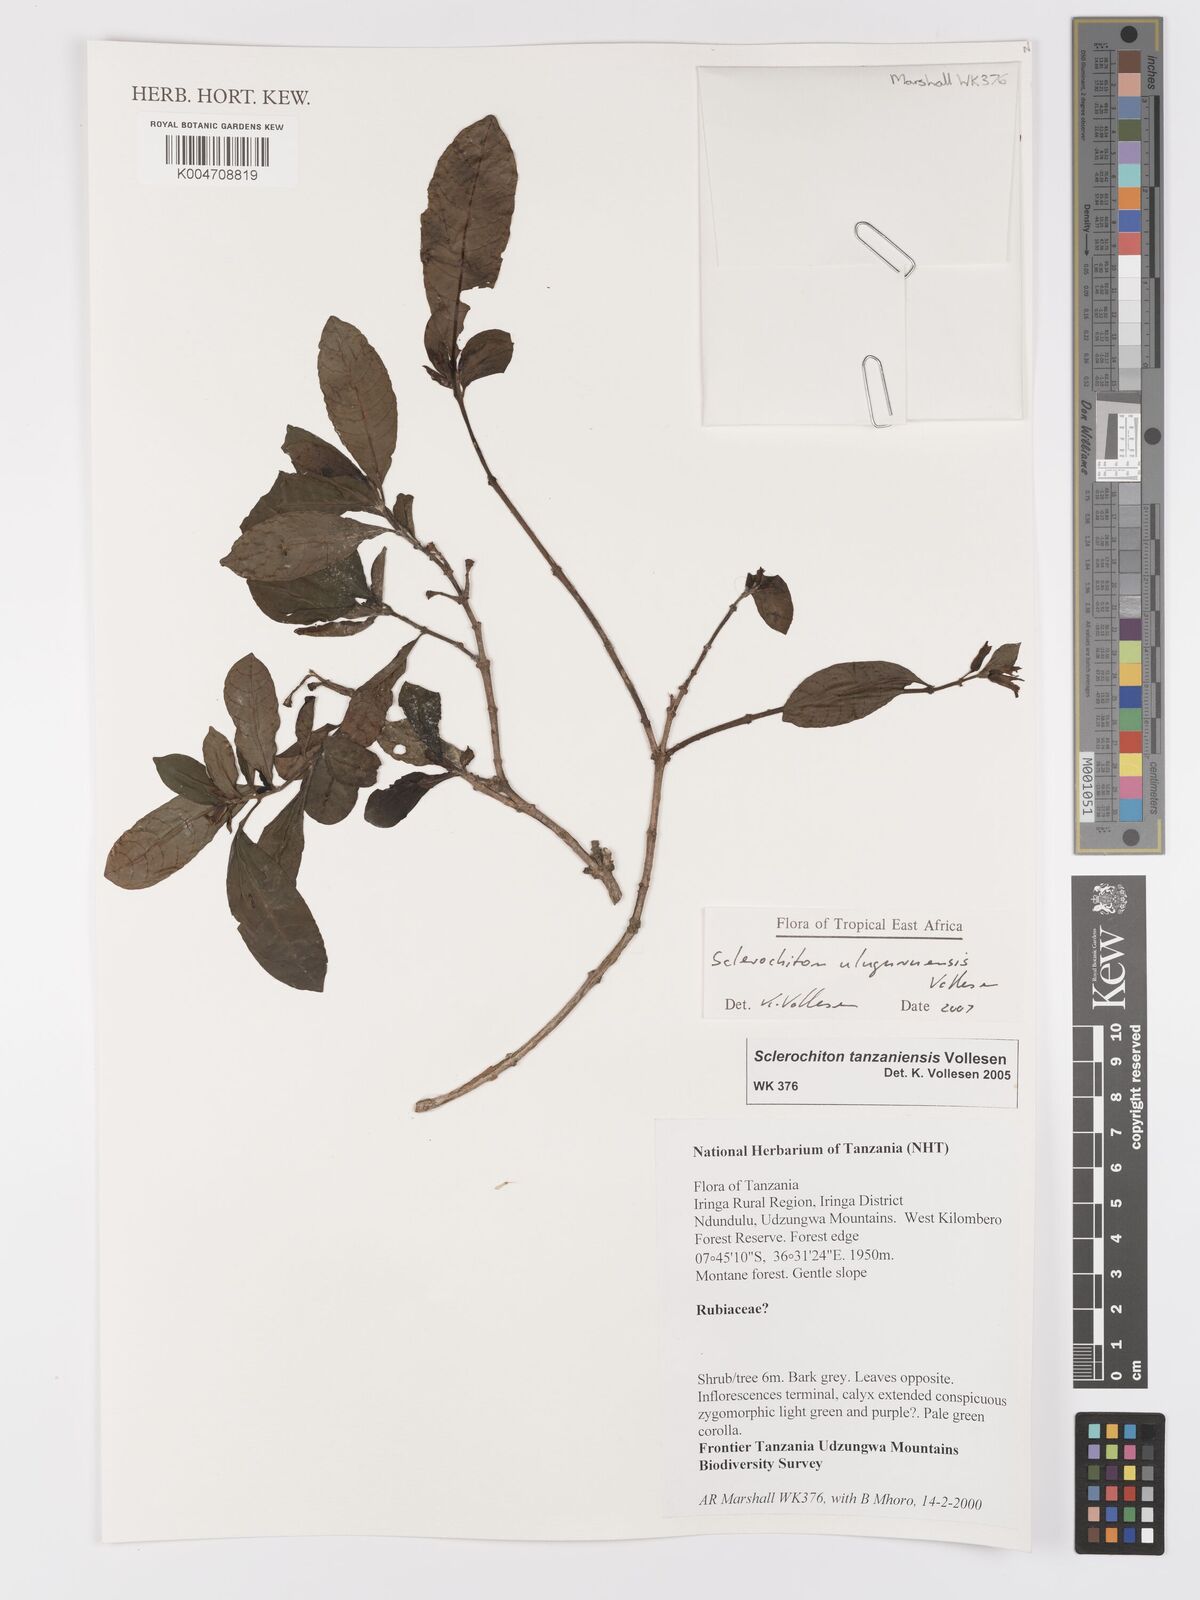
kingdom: Plantae
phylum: Tracheophyta
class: Magnoliopsida
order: Lamiales
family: Acanthaceae
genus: Sclerochiton
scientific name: Sclerochiton uluguruensis
